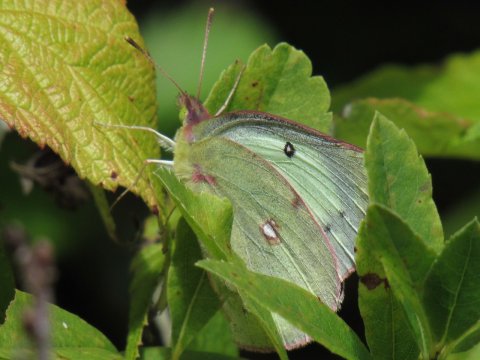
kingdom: Animalia
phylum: Arthropoda
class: Insecta
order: Lepidoptera
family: Pieridae
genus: Colias
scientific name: Colias philodice
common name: Clouded Sulphur
